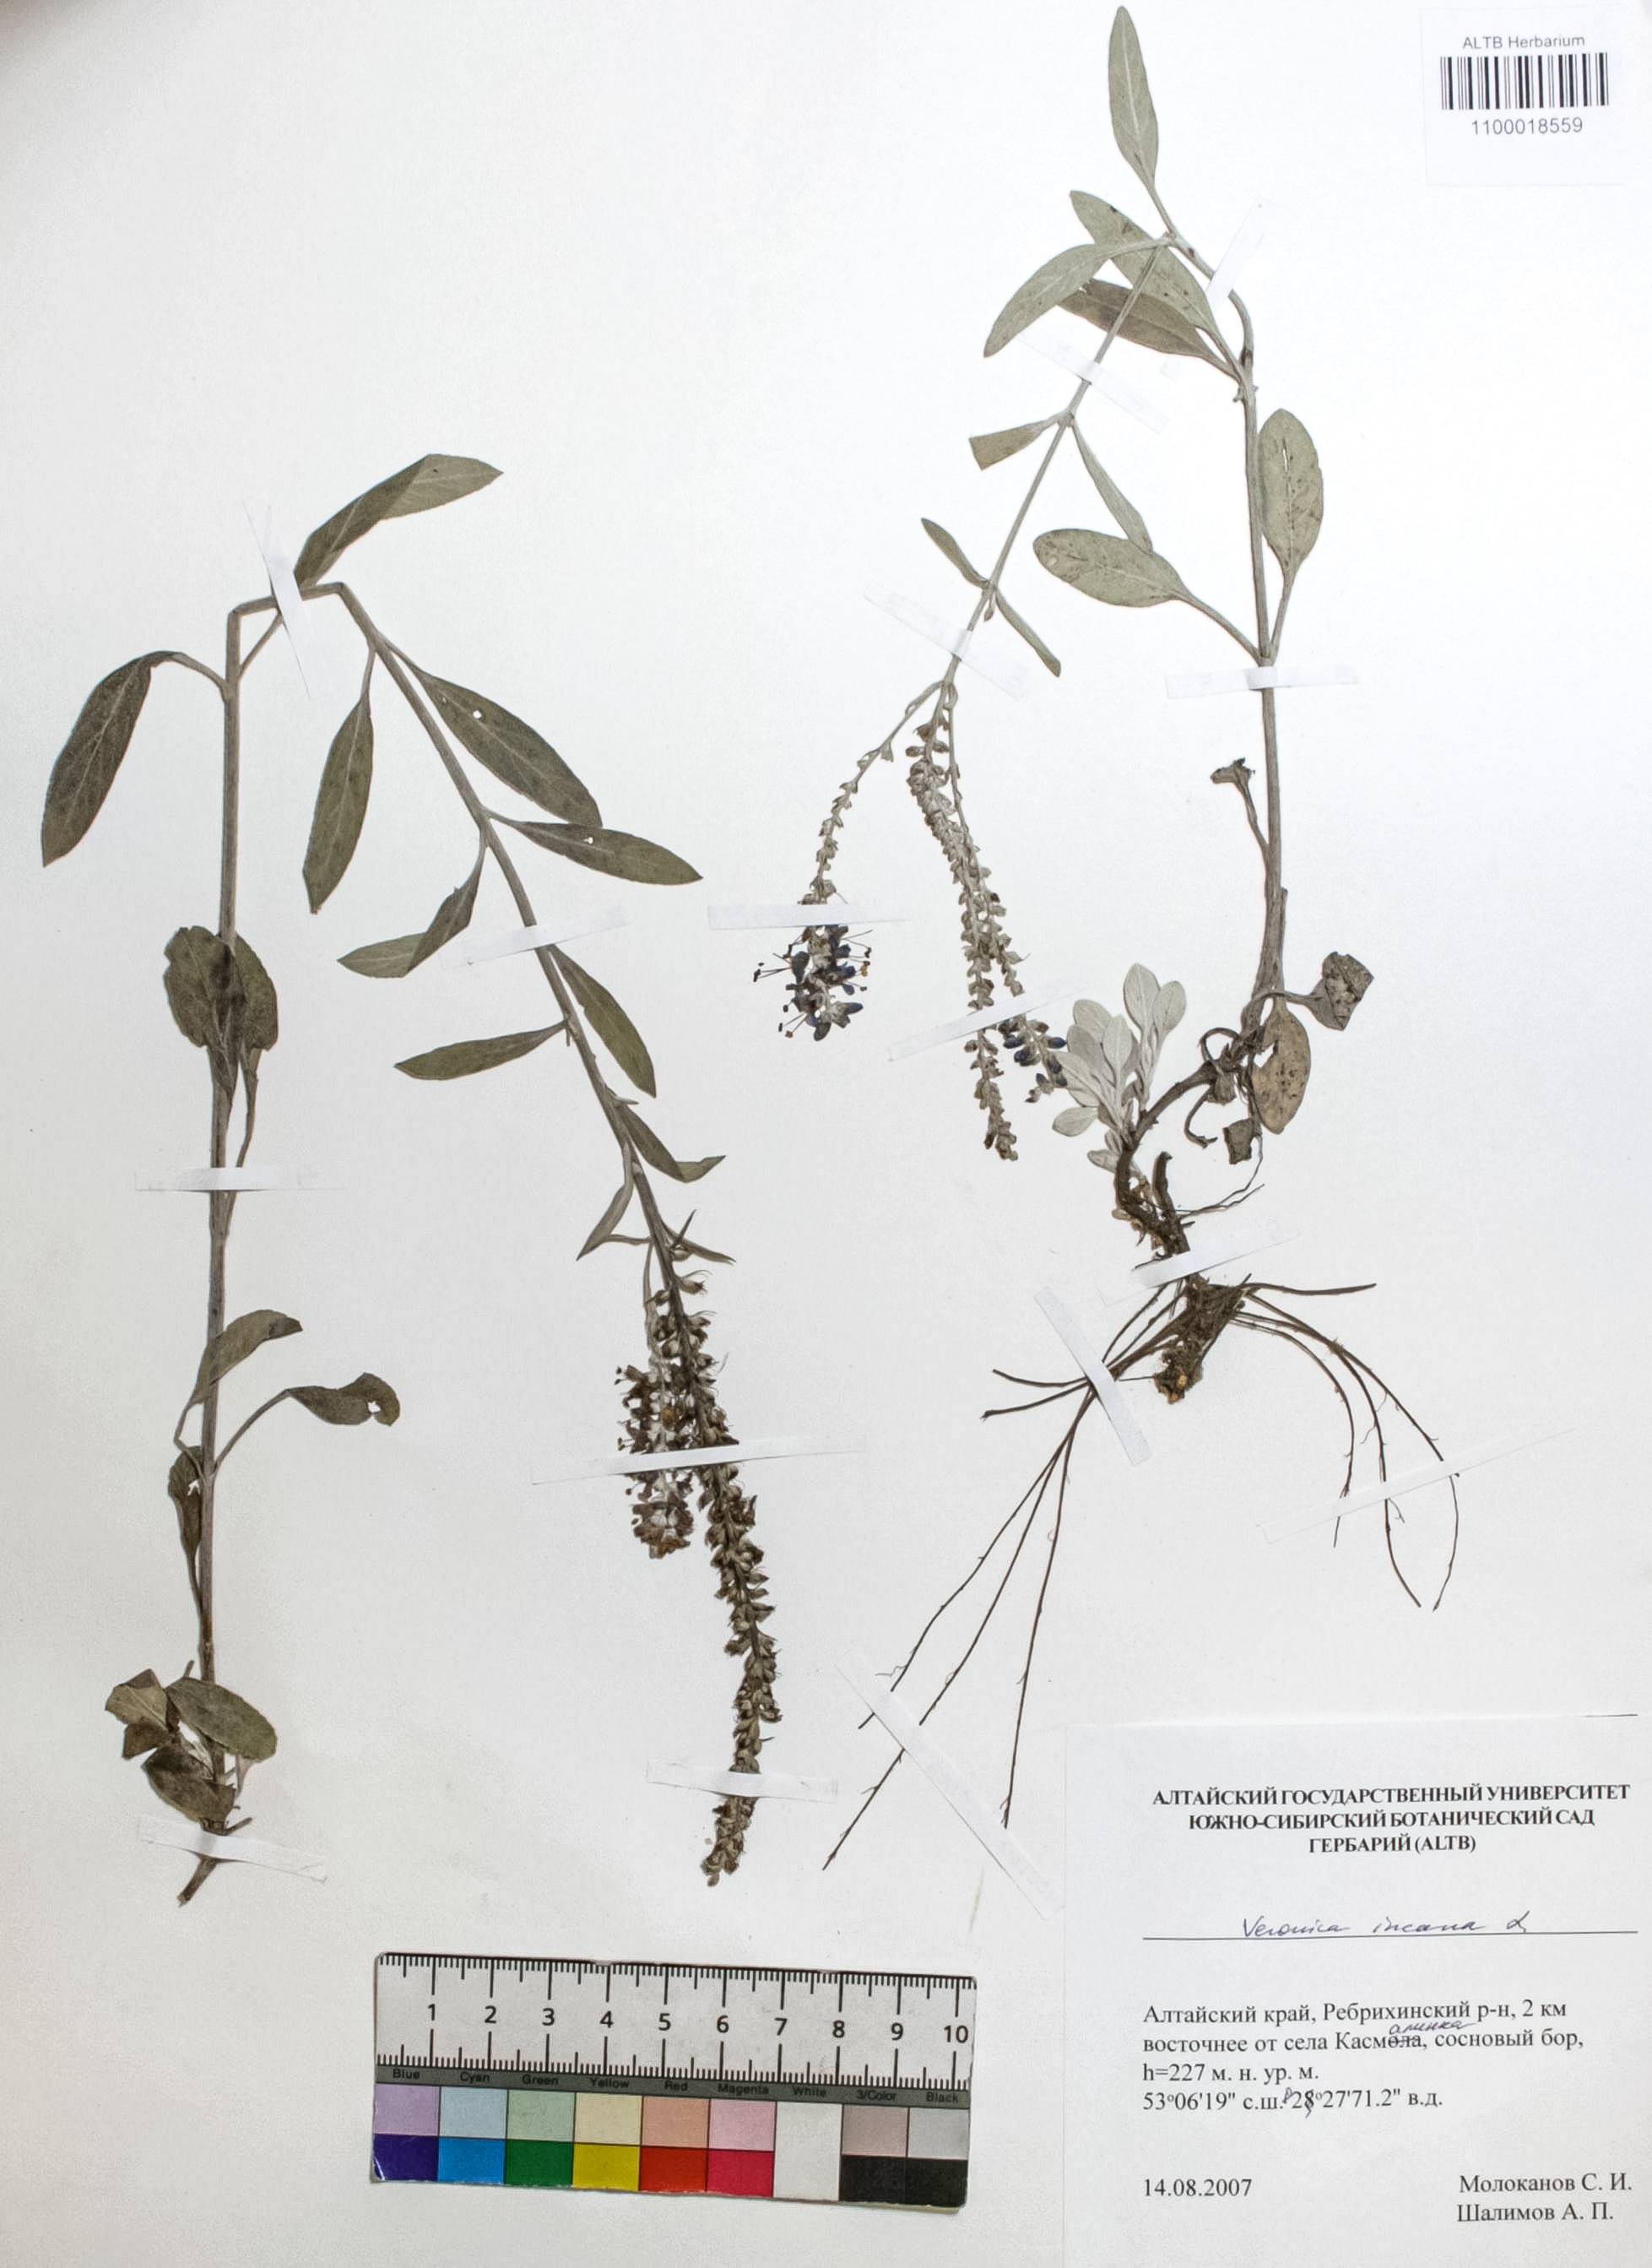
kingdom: Plantae
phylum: Tracheophyta
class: Magnoliopsida
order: Lamiales
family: Plantaginaceae
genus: Veronica
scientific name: Veronica incana
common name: Silver speedwell
